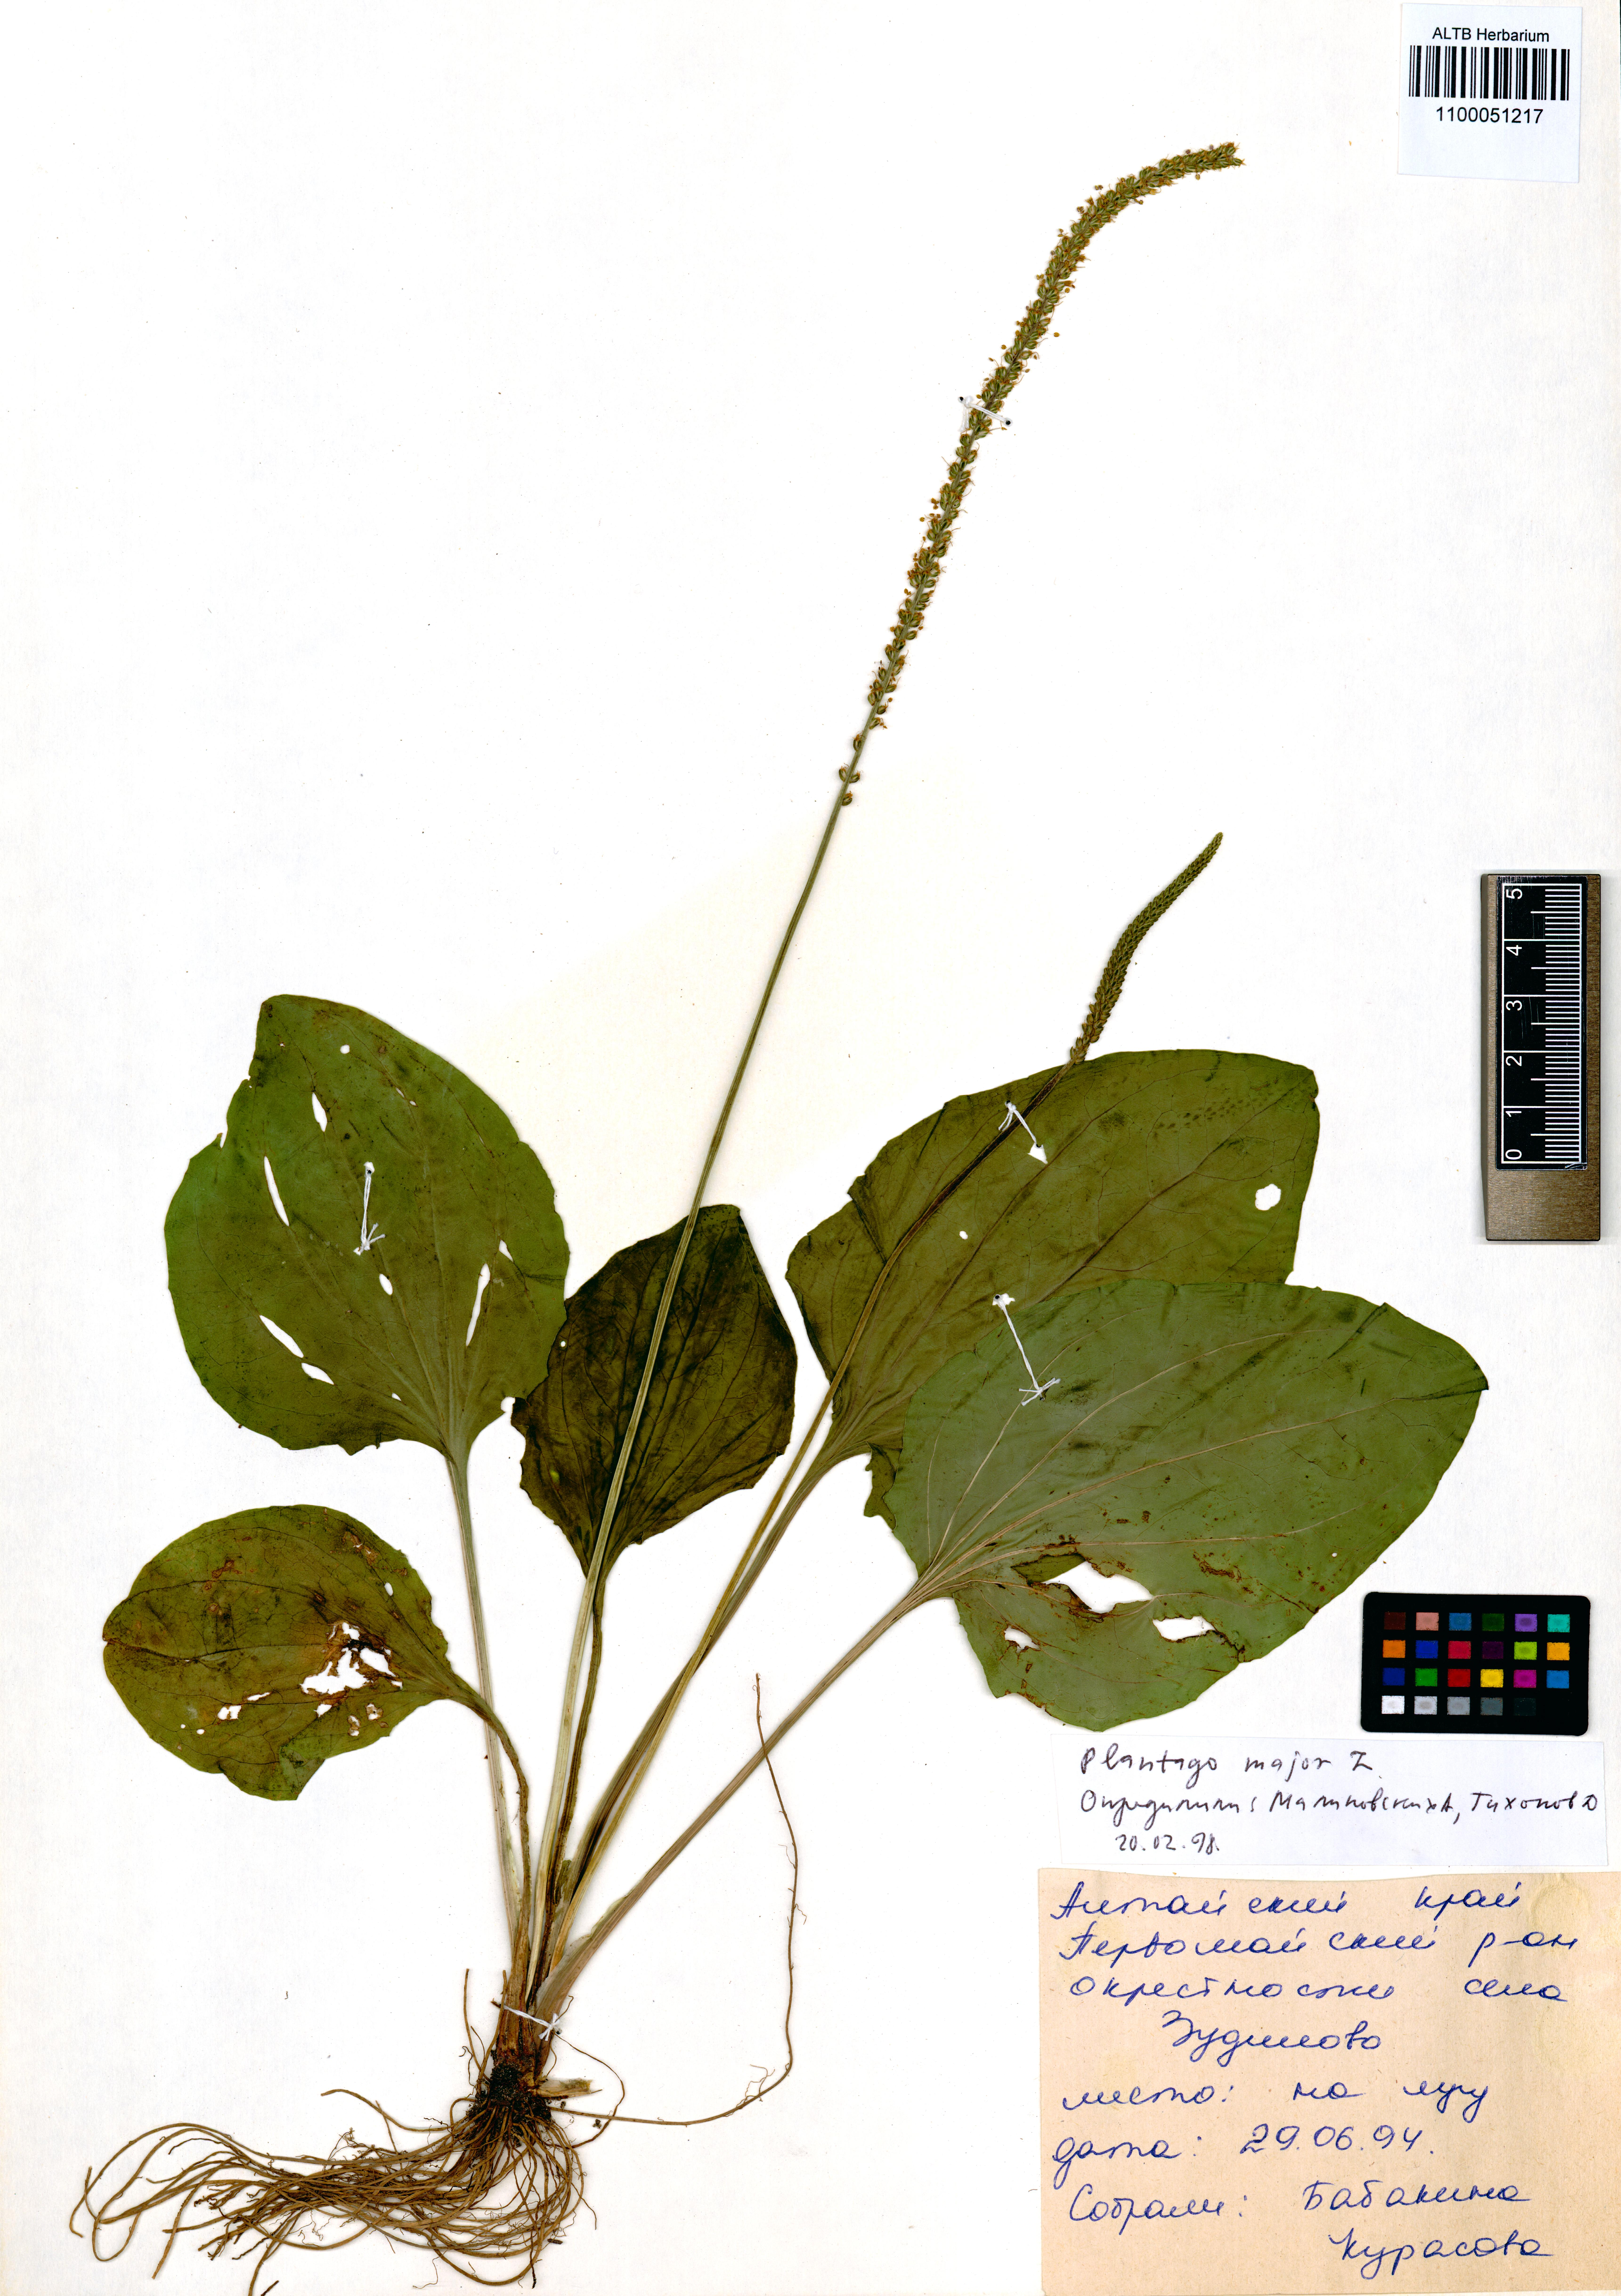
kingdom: Plantae
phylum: Tracheophyta
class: Magnoliopsida
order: Lamiales
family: Plantaginaceae
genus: Plantago
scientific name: Plantago major
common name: Common plantain
